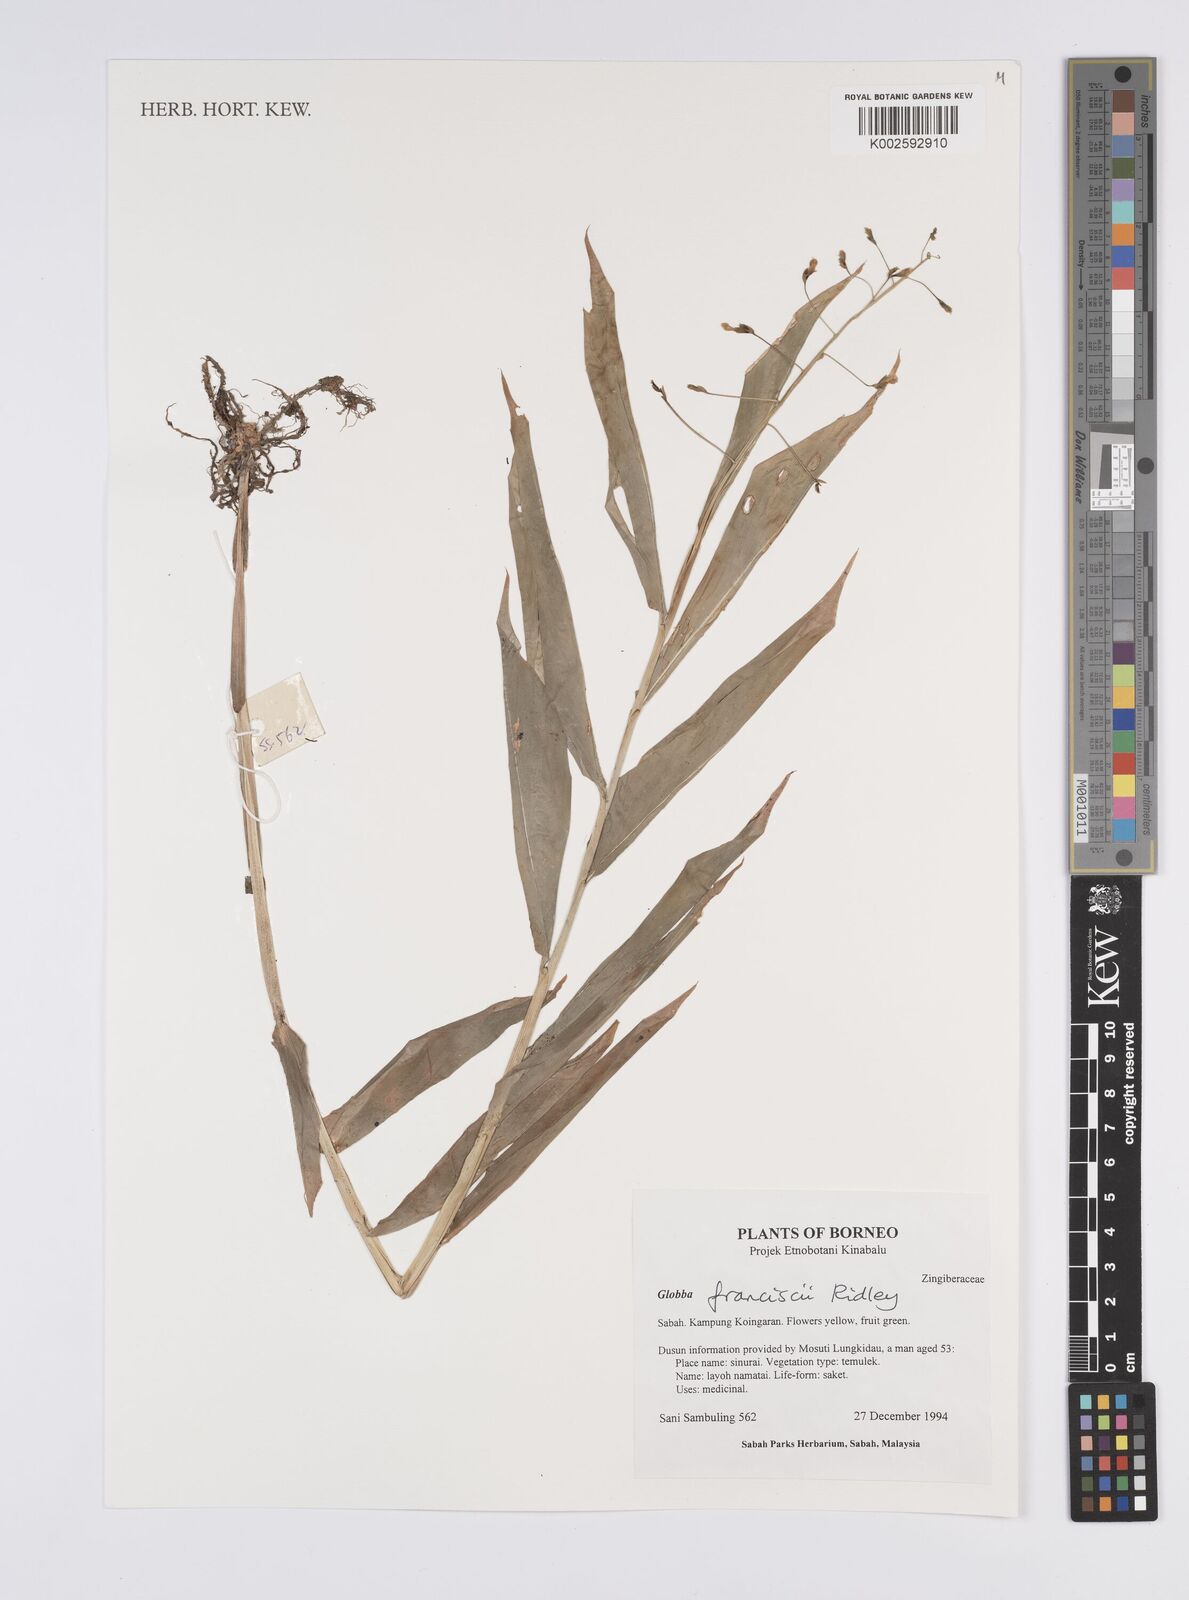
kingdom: Plantae
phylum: Tracheophyta
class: Liliopsida
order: Zingiberales
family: Zingiberaceae
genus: Globba
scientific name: Globba francisci
